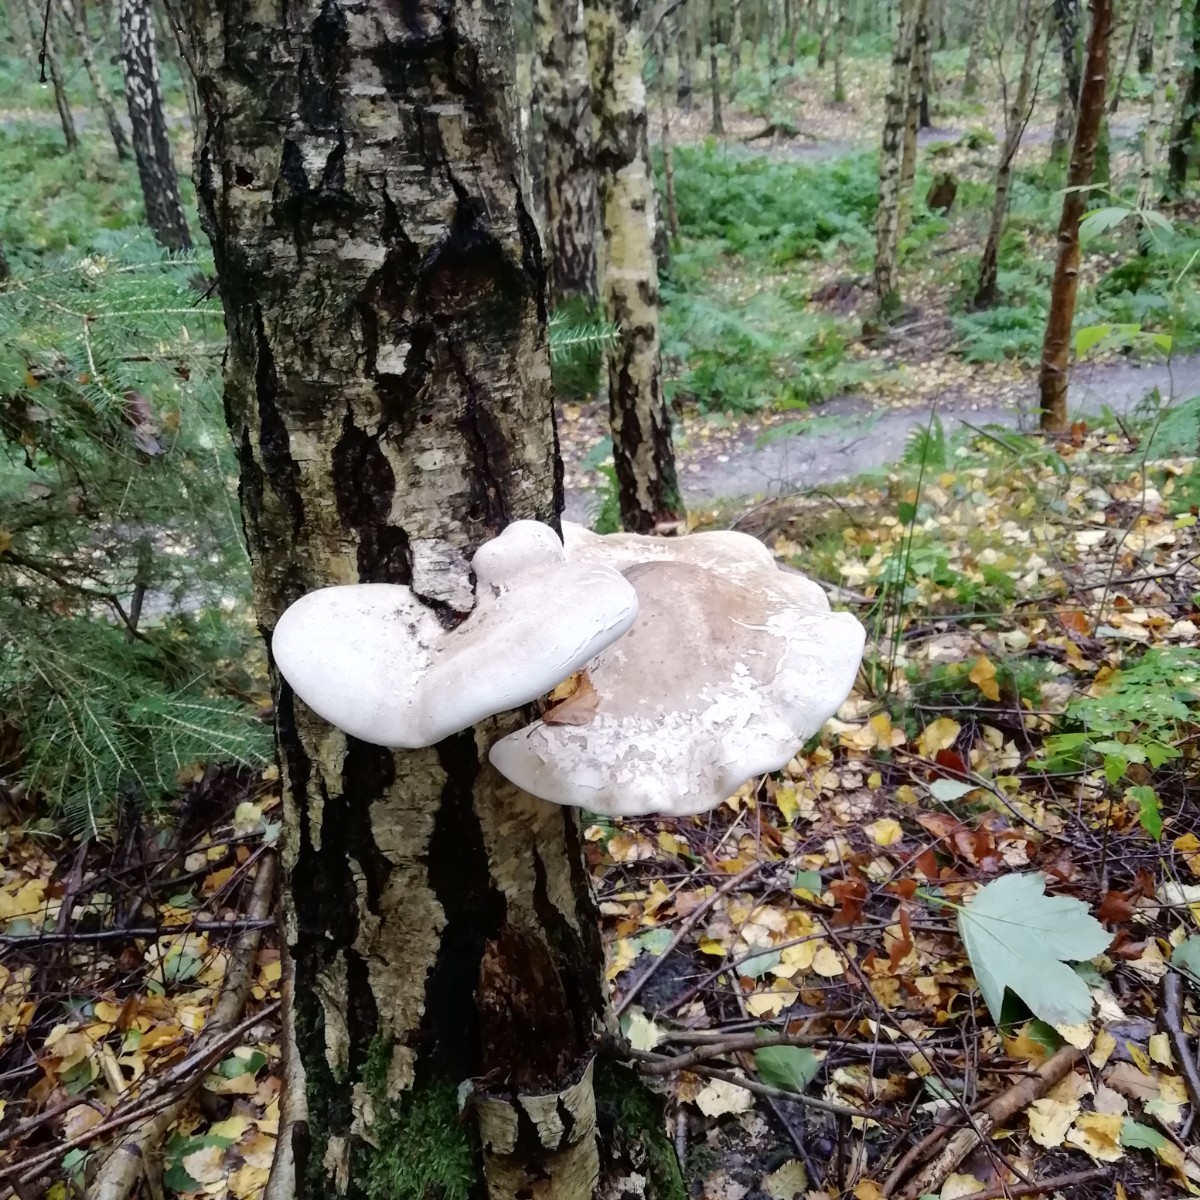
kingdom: Fungi
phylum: Basidiomycota
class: Agaricomycetes
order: Polyporales
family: Fomitopsidaceae
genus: Fomitopsis
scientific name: Fomitopsis betulina
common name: birkeporesvamp
